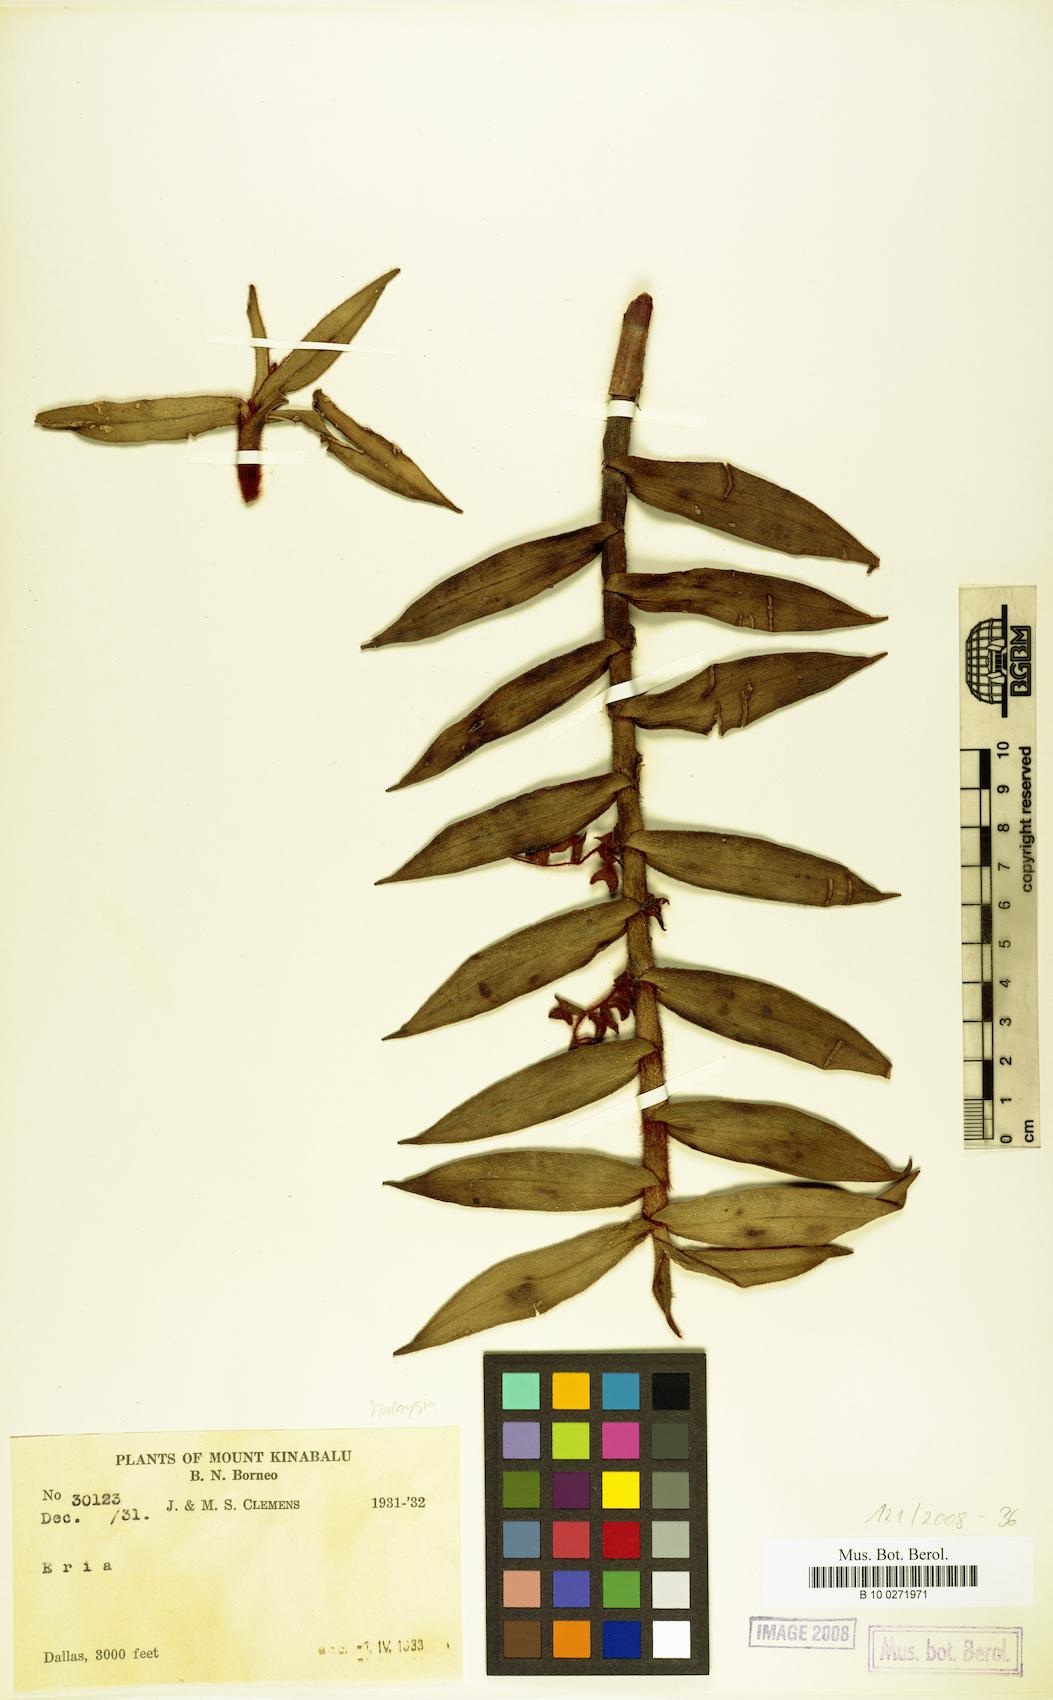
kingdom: Plantae
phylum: Tracheophyta
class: Liliopsida
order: Asparagales
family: Orchidaceae
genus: Eria
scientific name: Eria
